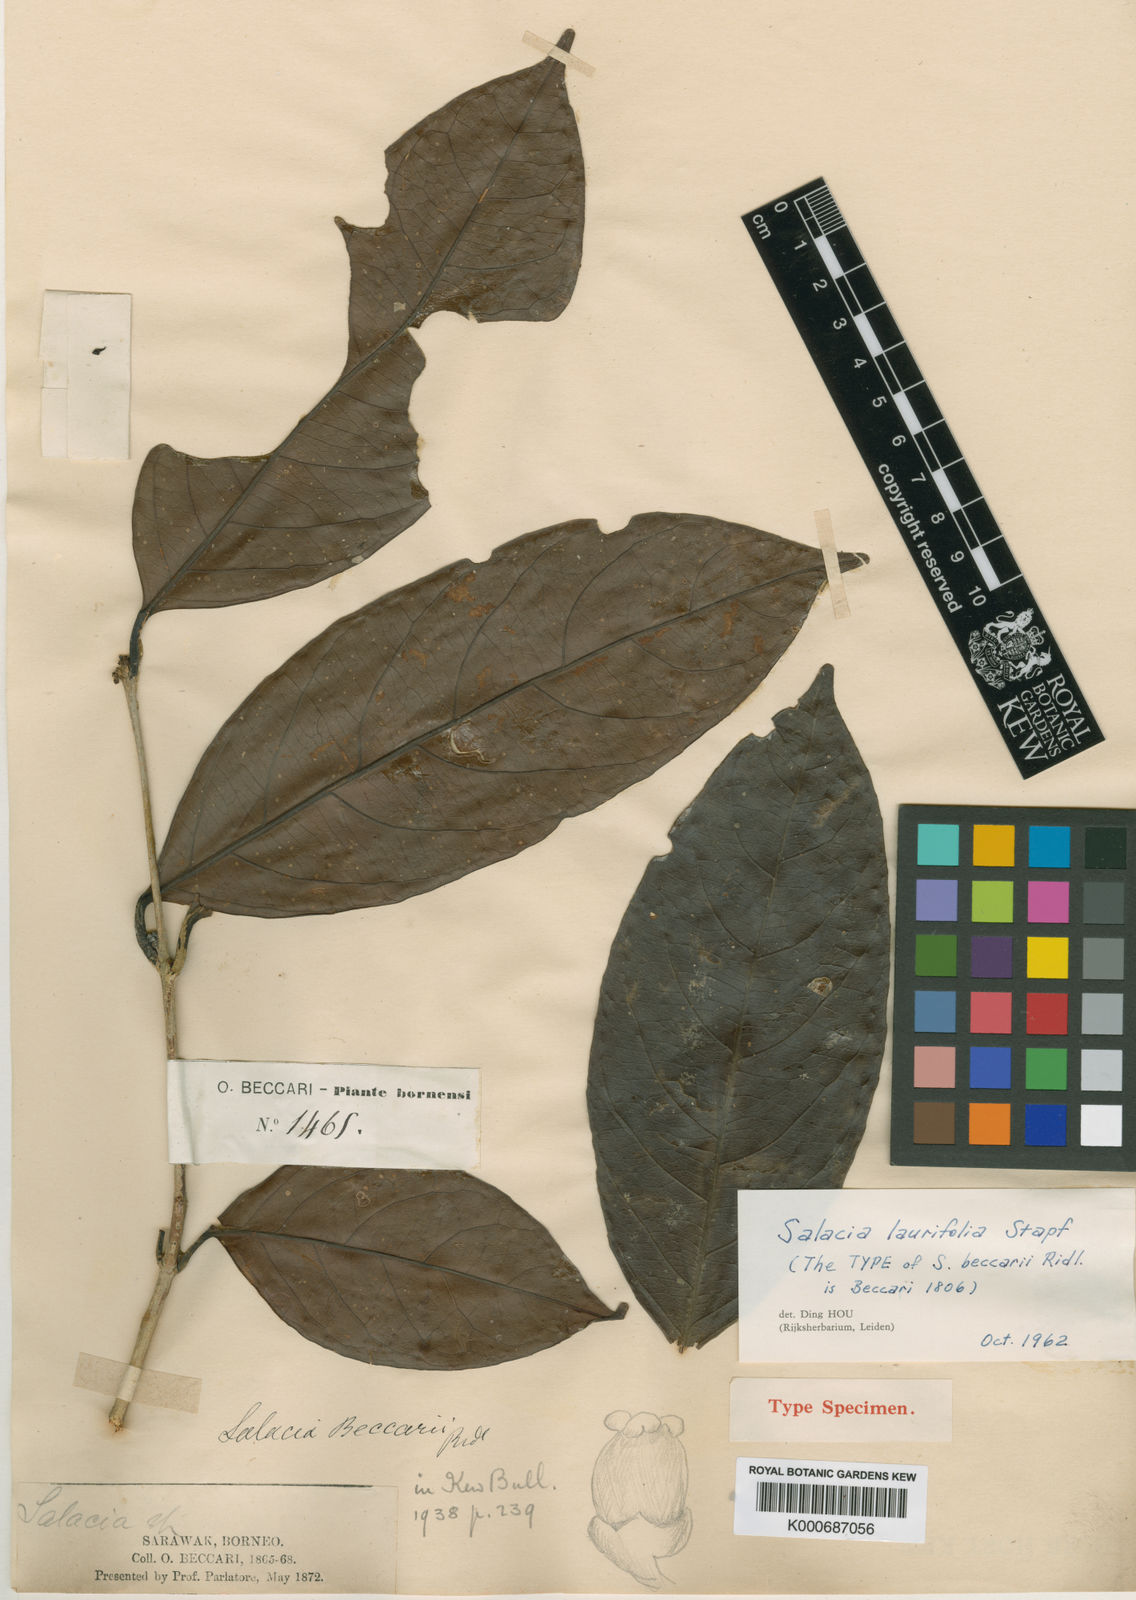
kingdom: Plantae
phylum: Tracheophyta
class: Magnoliopsida
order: Celastrales
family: Celastraceae
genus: Salacia
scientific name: Salacia laurifolia
